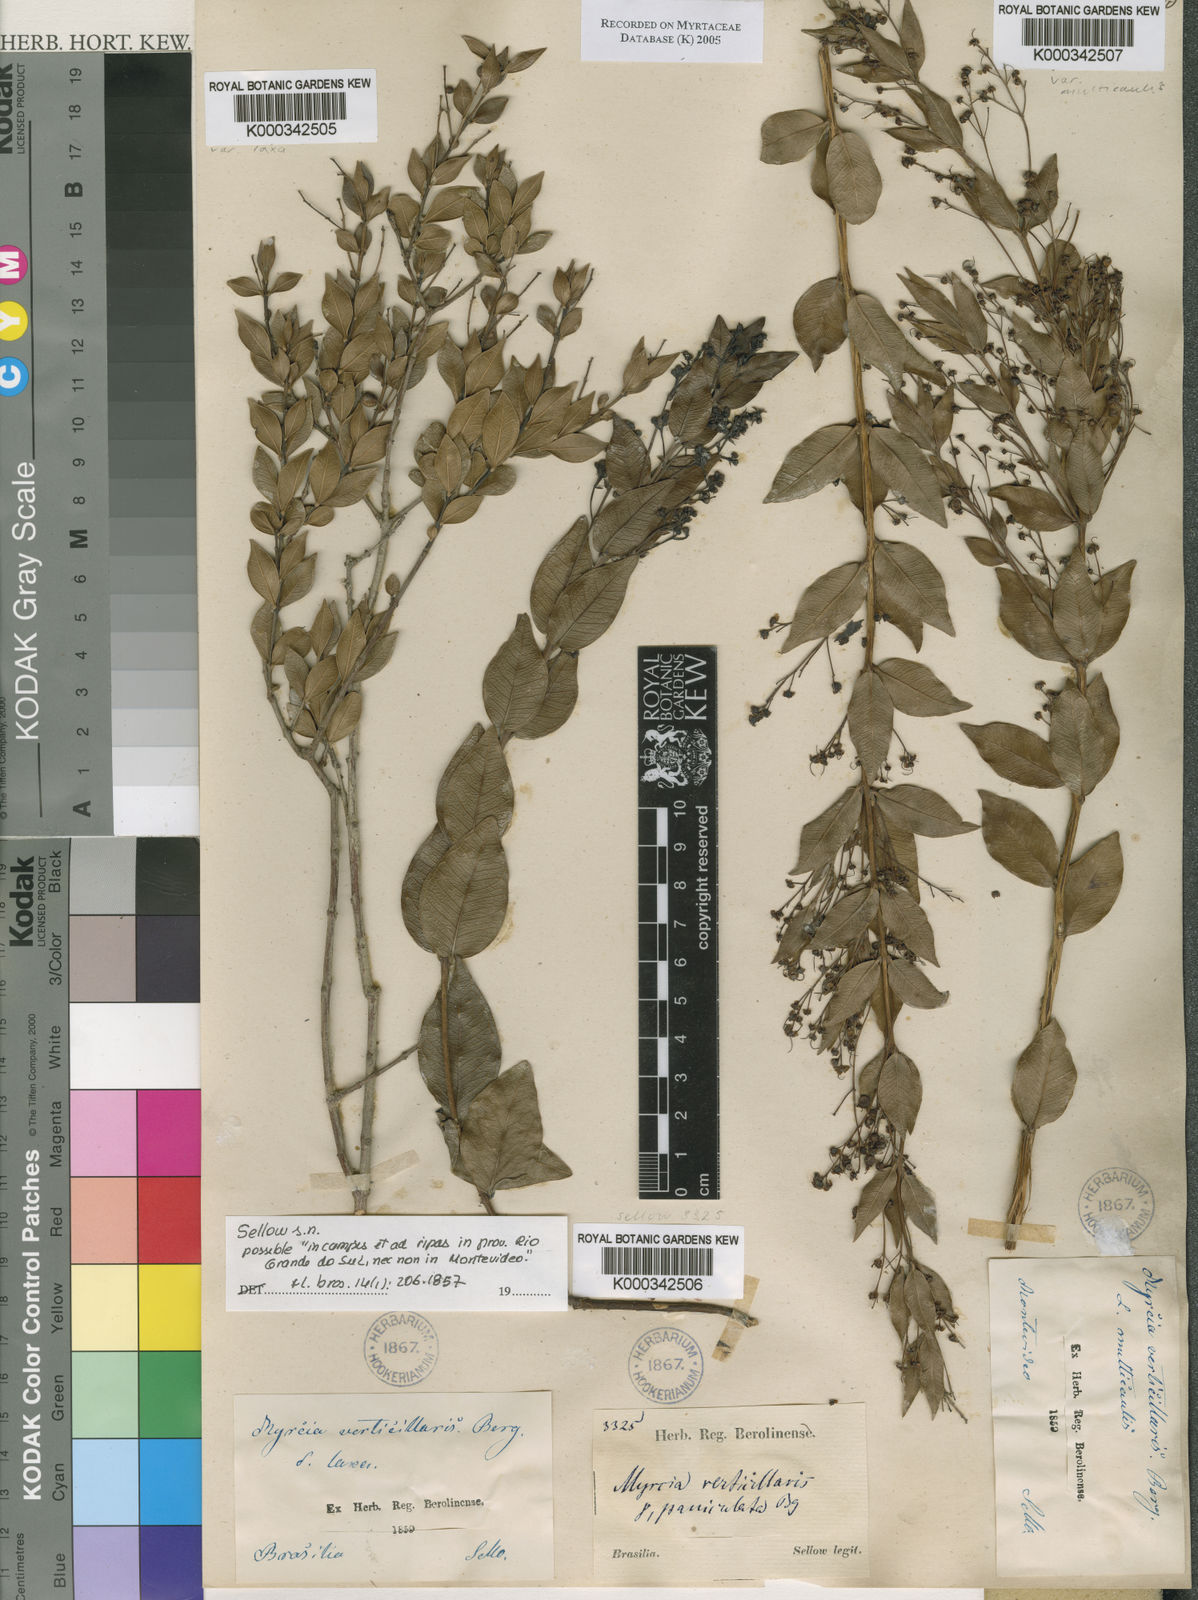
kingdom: Plantae
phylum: Tracheophyta
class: Magnoliopsida
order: Myrtales
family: Myrtaceae
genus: Myrcia
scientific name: Myrcia verticillaris
